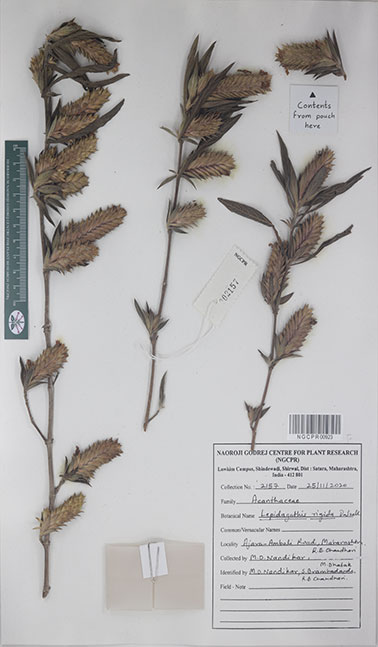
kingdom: Plantae
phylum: Tracheophyta
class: Magnoliopsida
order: Lamiales
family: Acanthaceae
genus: Lepidagathis
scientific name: Lepidagathis rigida
